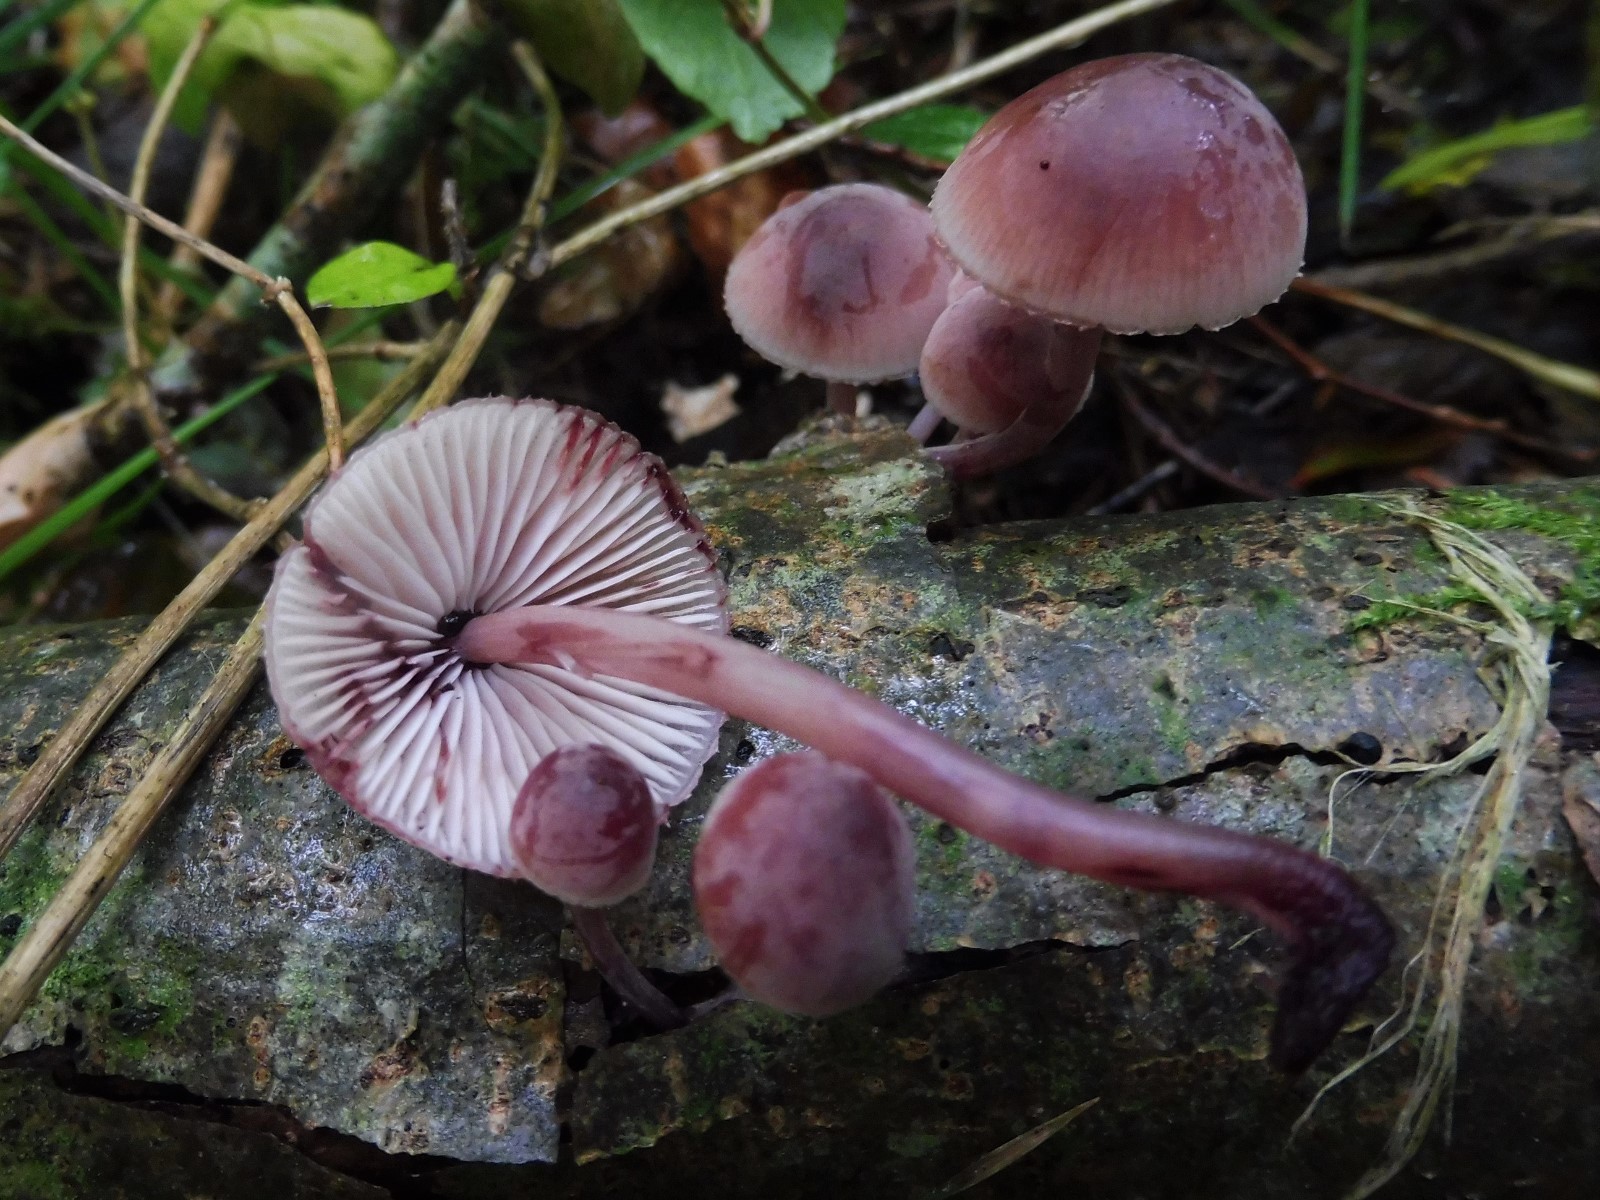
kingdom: Fungi
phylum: Basidiomycota
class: Agaricomycetes
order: Agaricales
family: Mycenaceae
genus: Mycena
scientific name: Mycena haematopus
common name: blødende huesvamp
